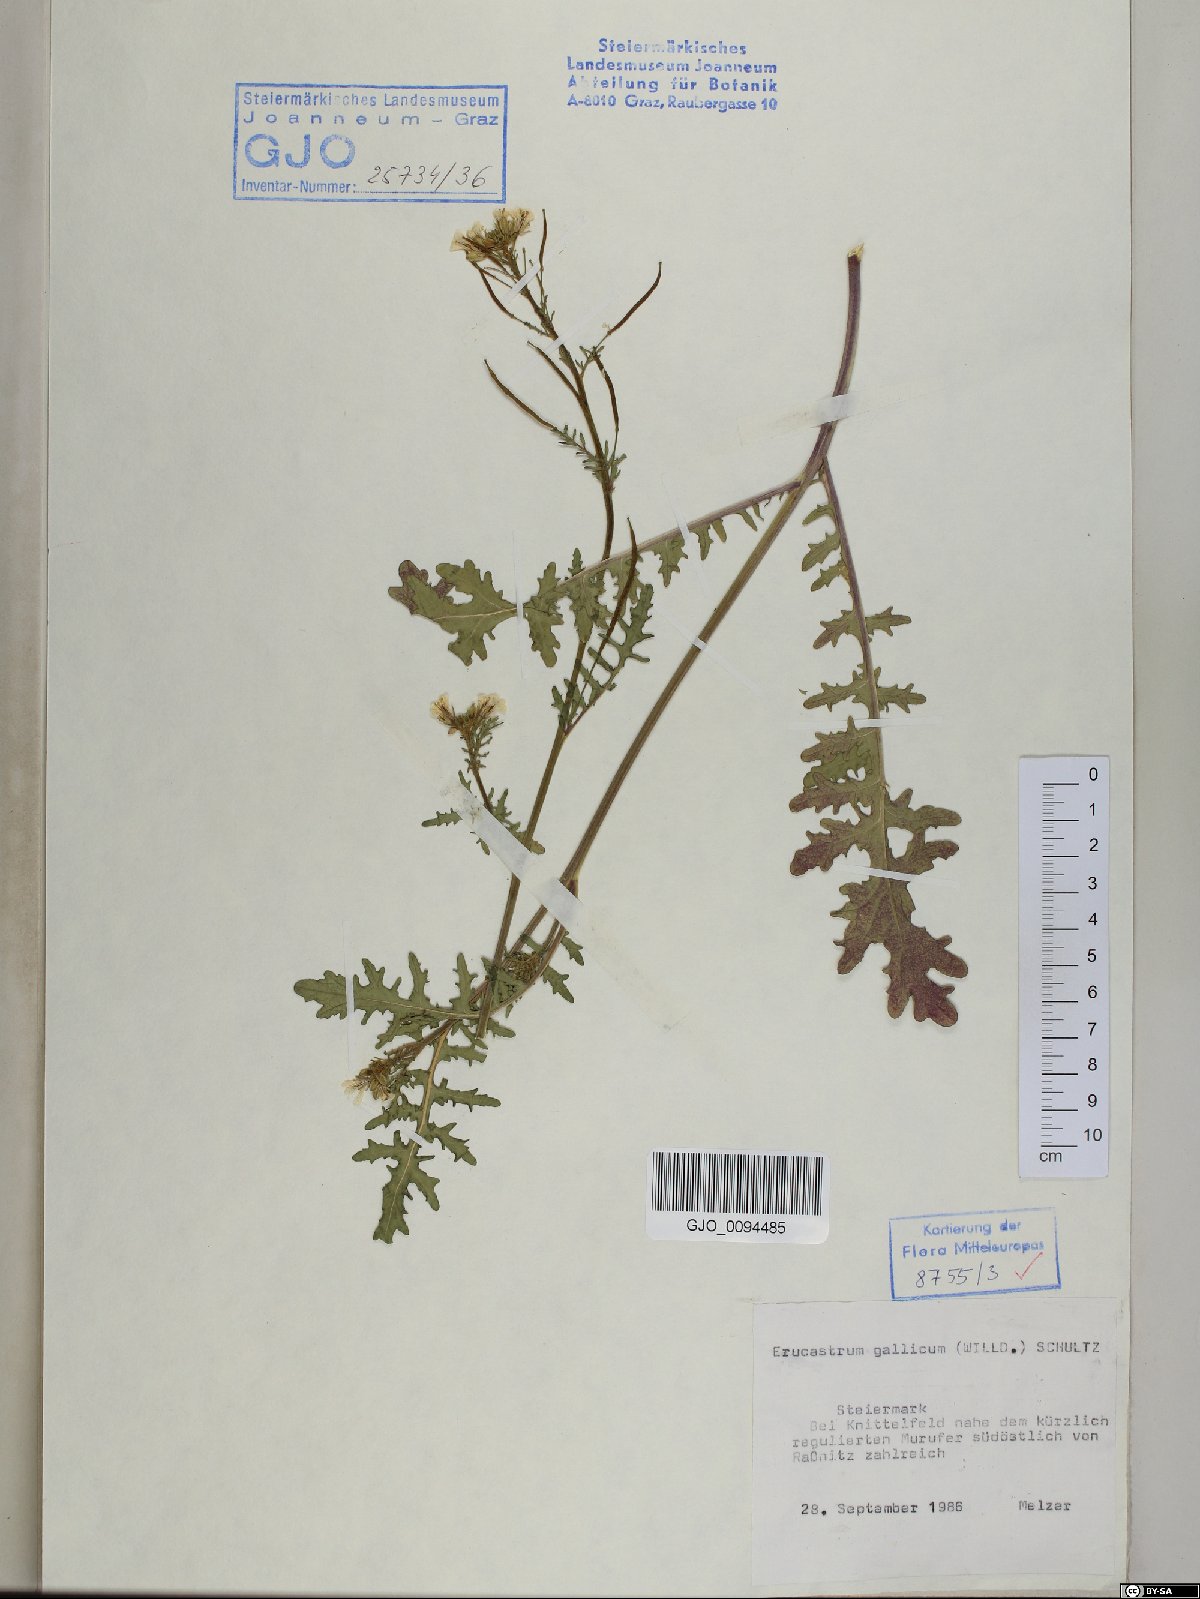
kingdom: Plantae
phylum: Tracheophyta
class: Magnoliopsida
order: Brassicales
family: Brassicaceae
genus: Erucastrum
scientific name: Erucastrum gallicum
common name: Hairy rocket
